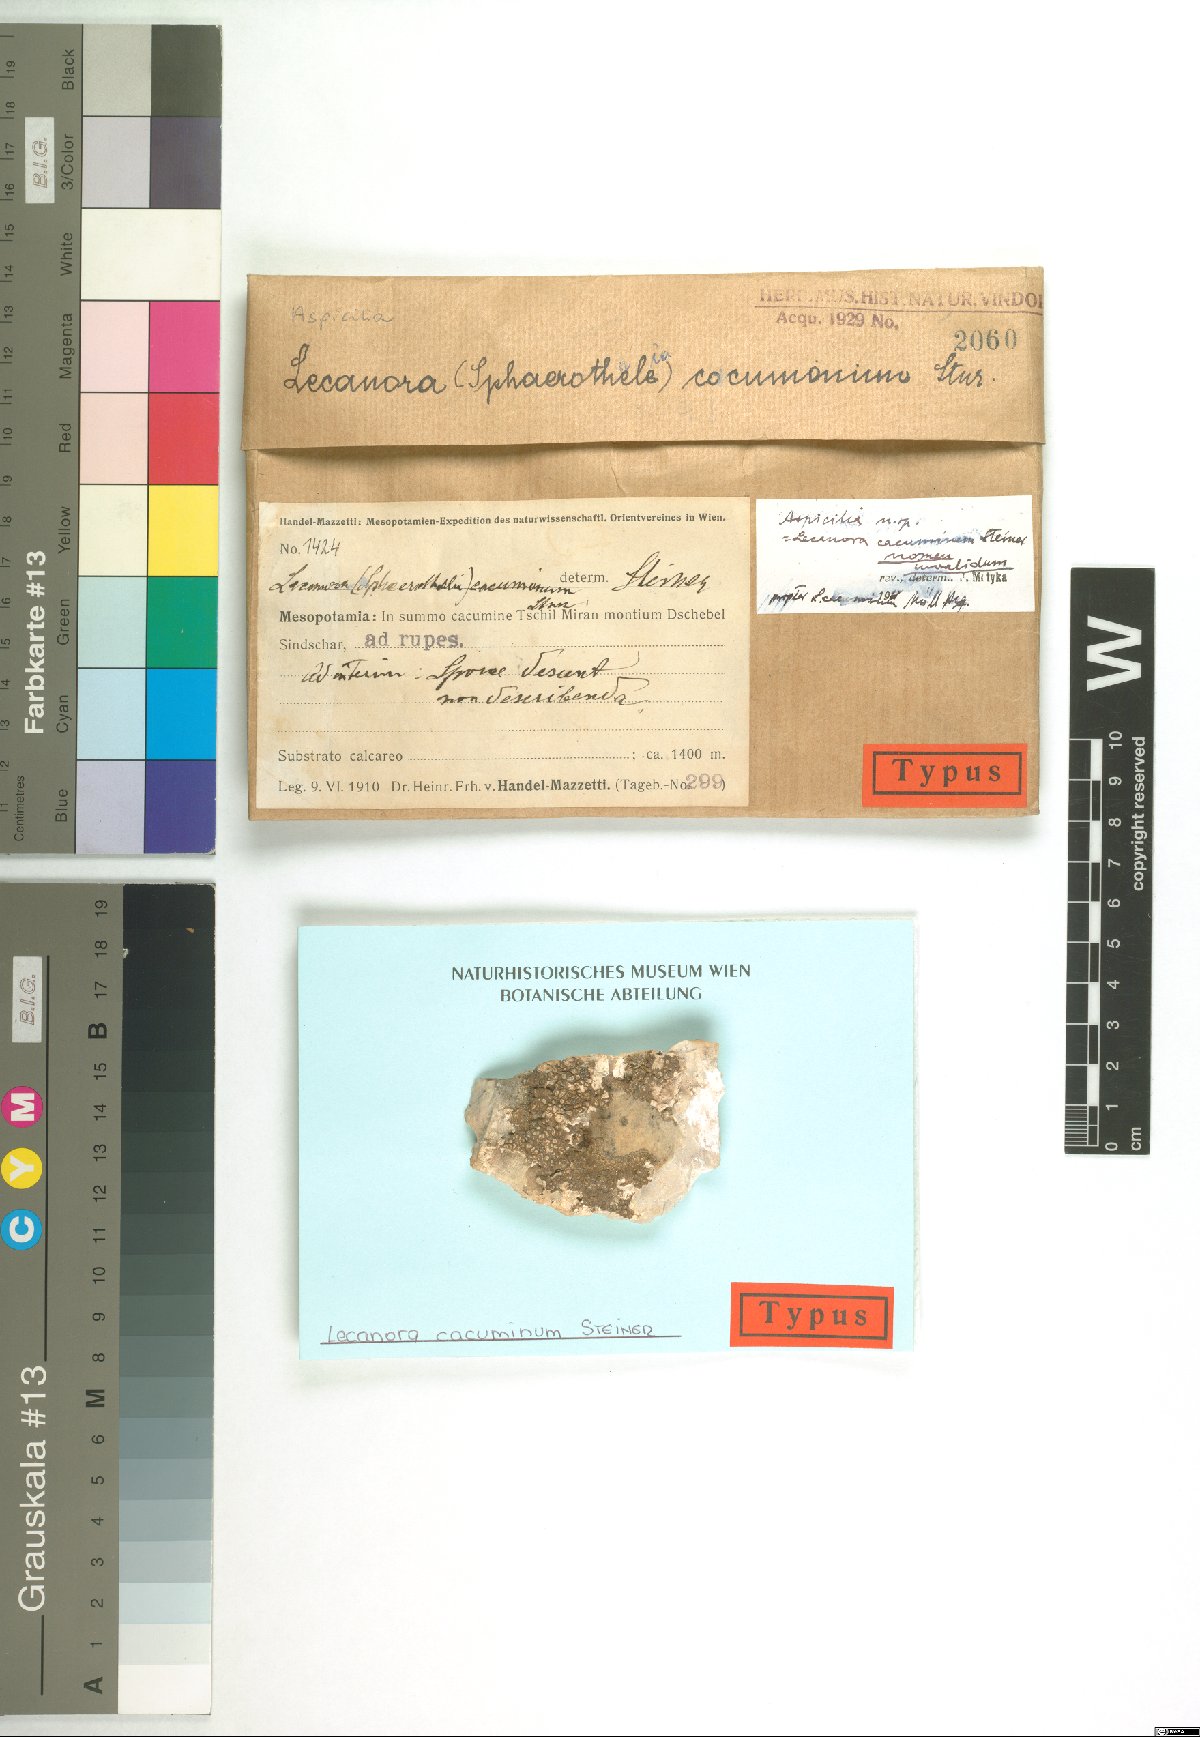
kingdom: Fungi
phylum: Ascomycota
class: Lecanoromycetes
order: Lecanorales
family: Lecanoraceae
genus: Lecanora
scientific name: Lecanora
